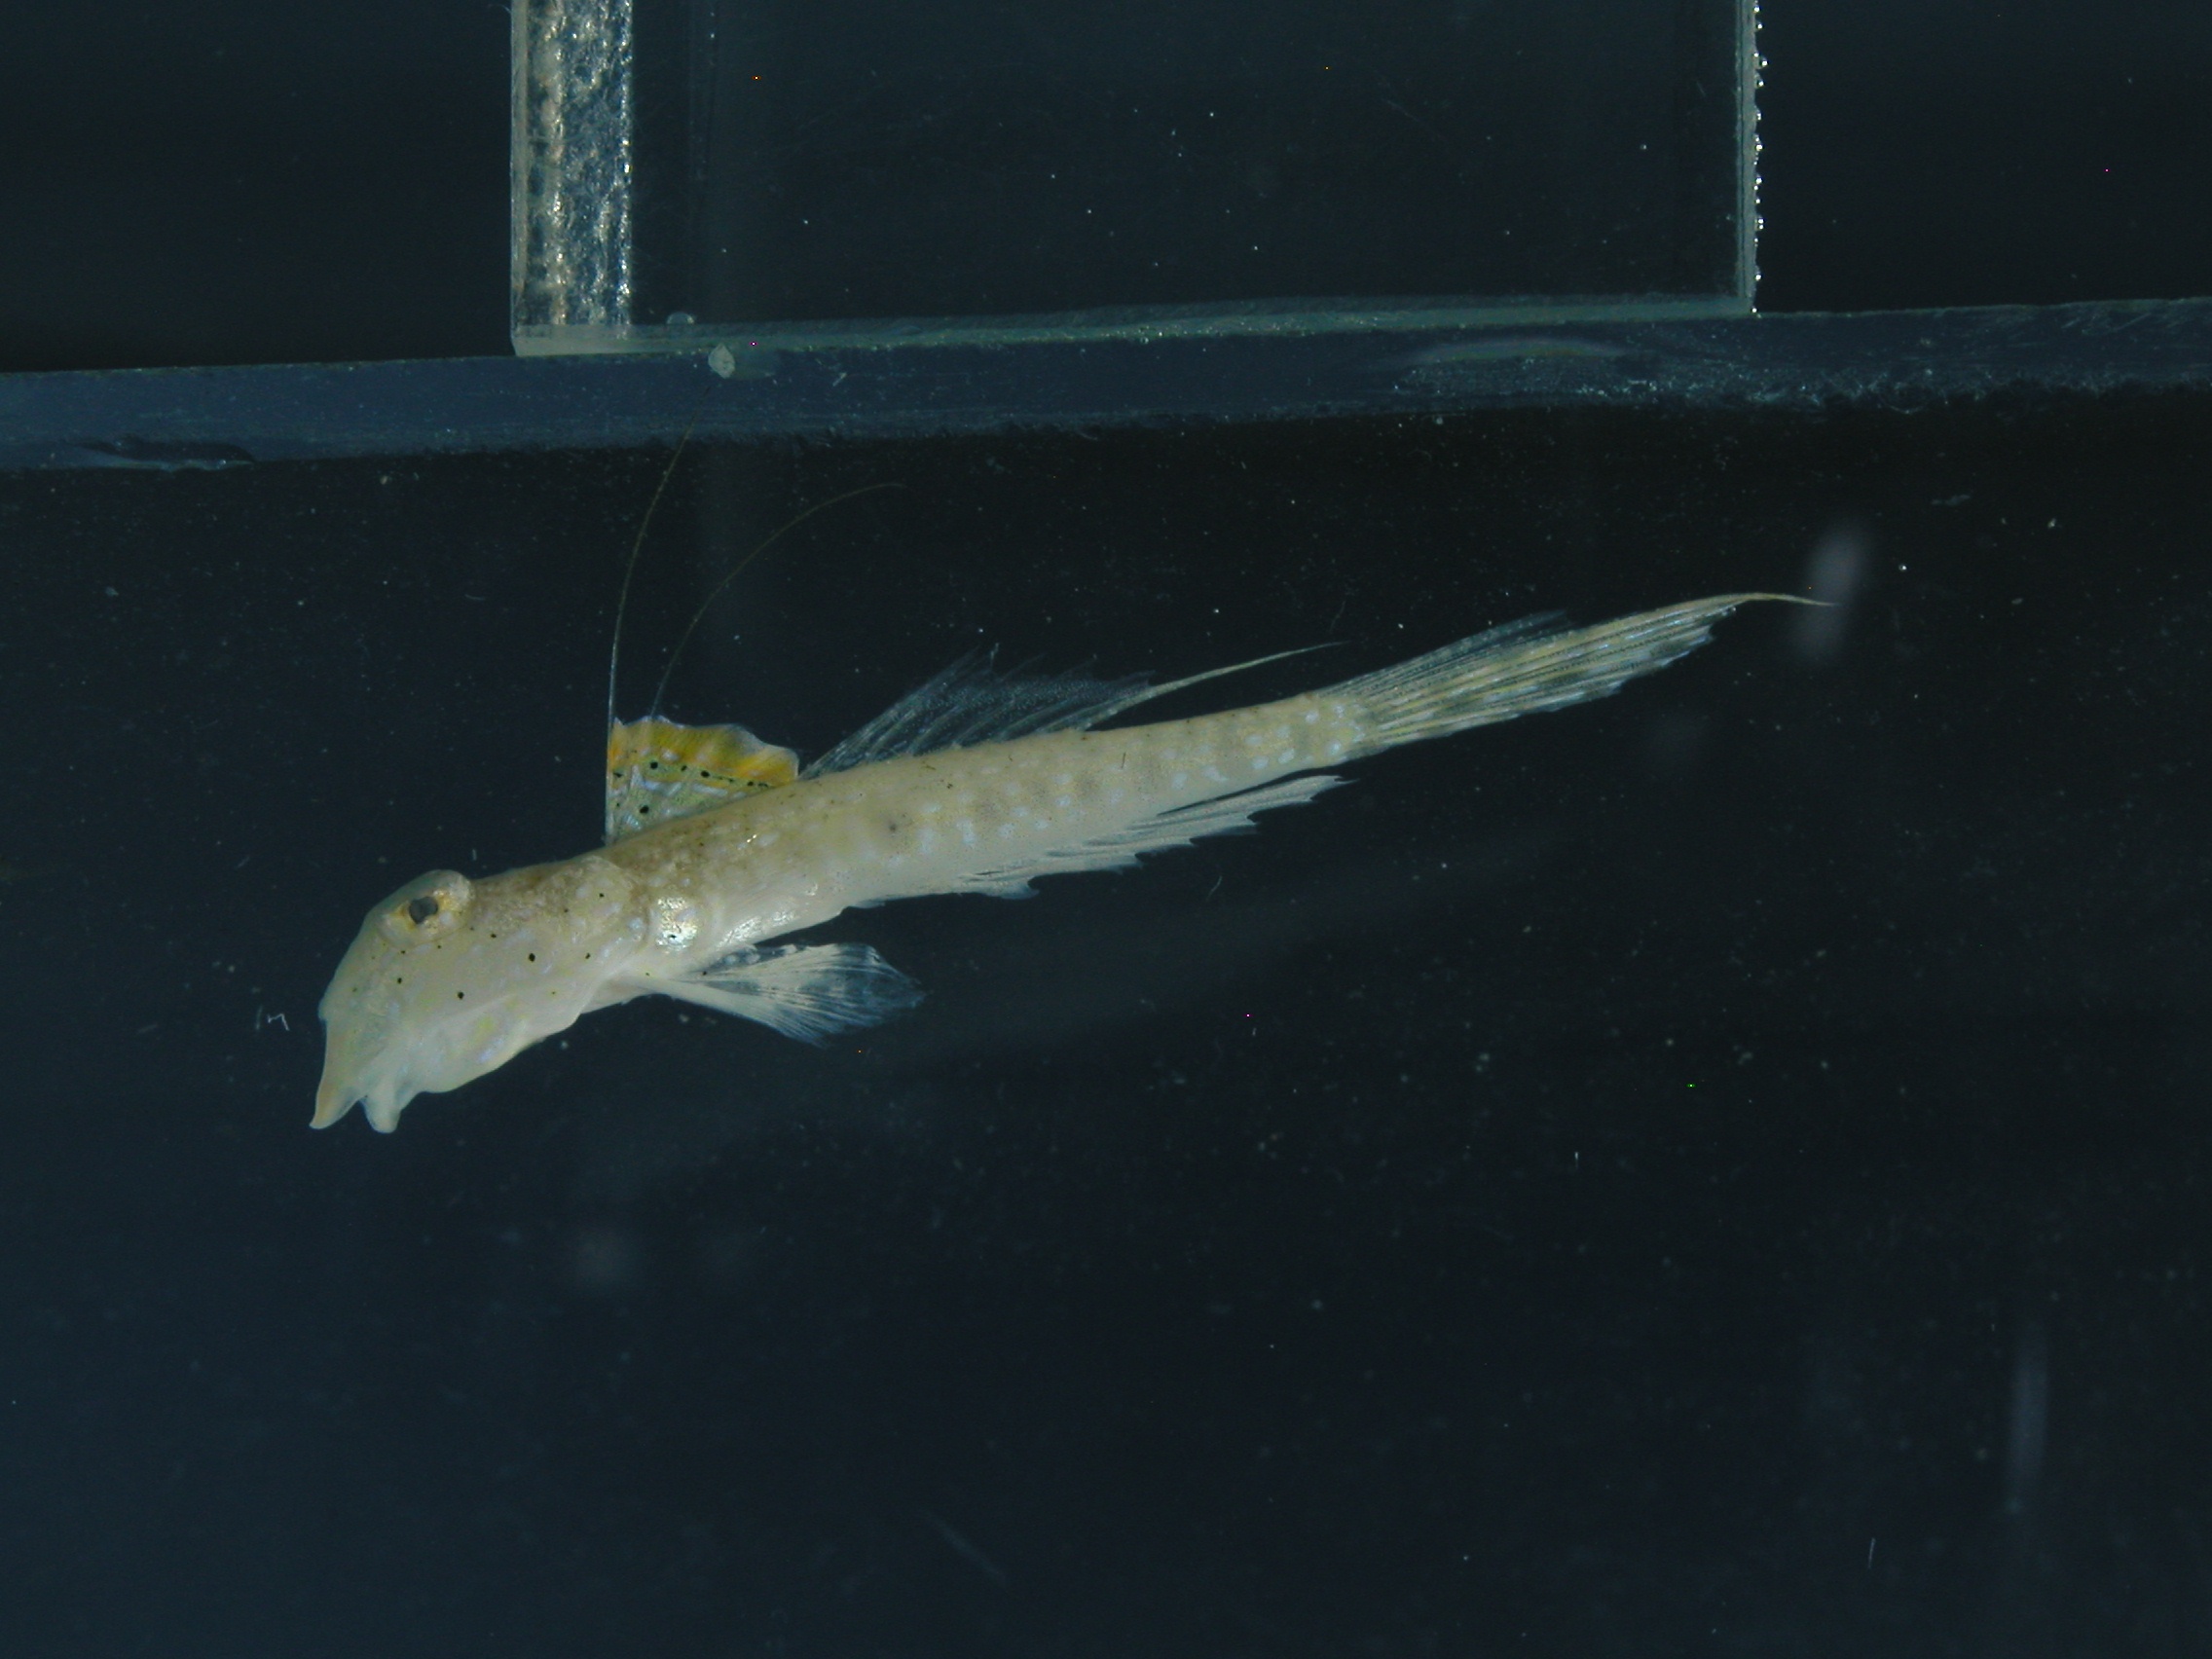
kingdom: Animalia
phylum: Chordata
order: Perciformes
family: Callionymidae
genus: Callionymus
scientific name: Callionymus delicatulus
